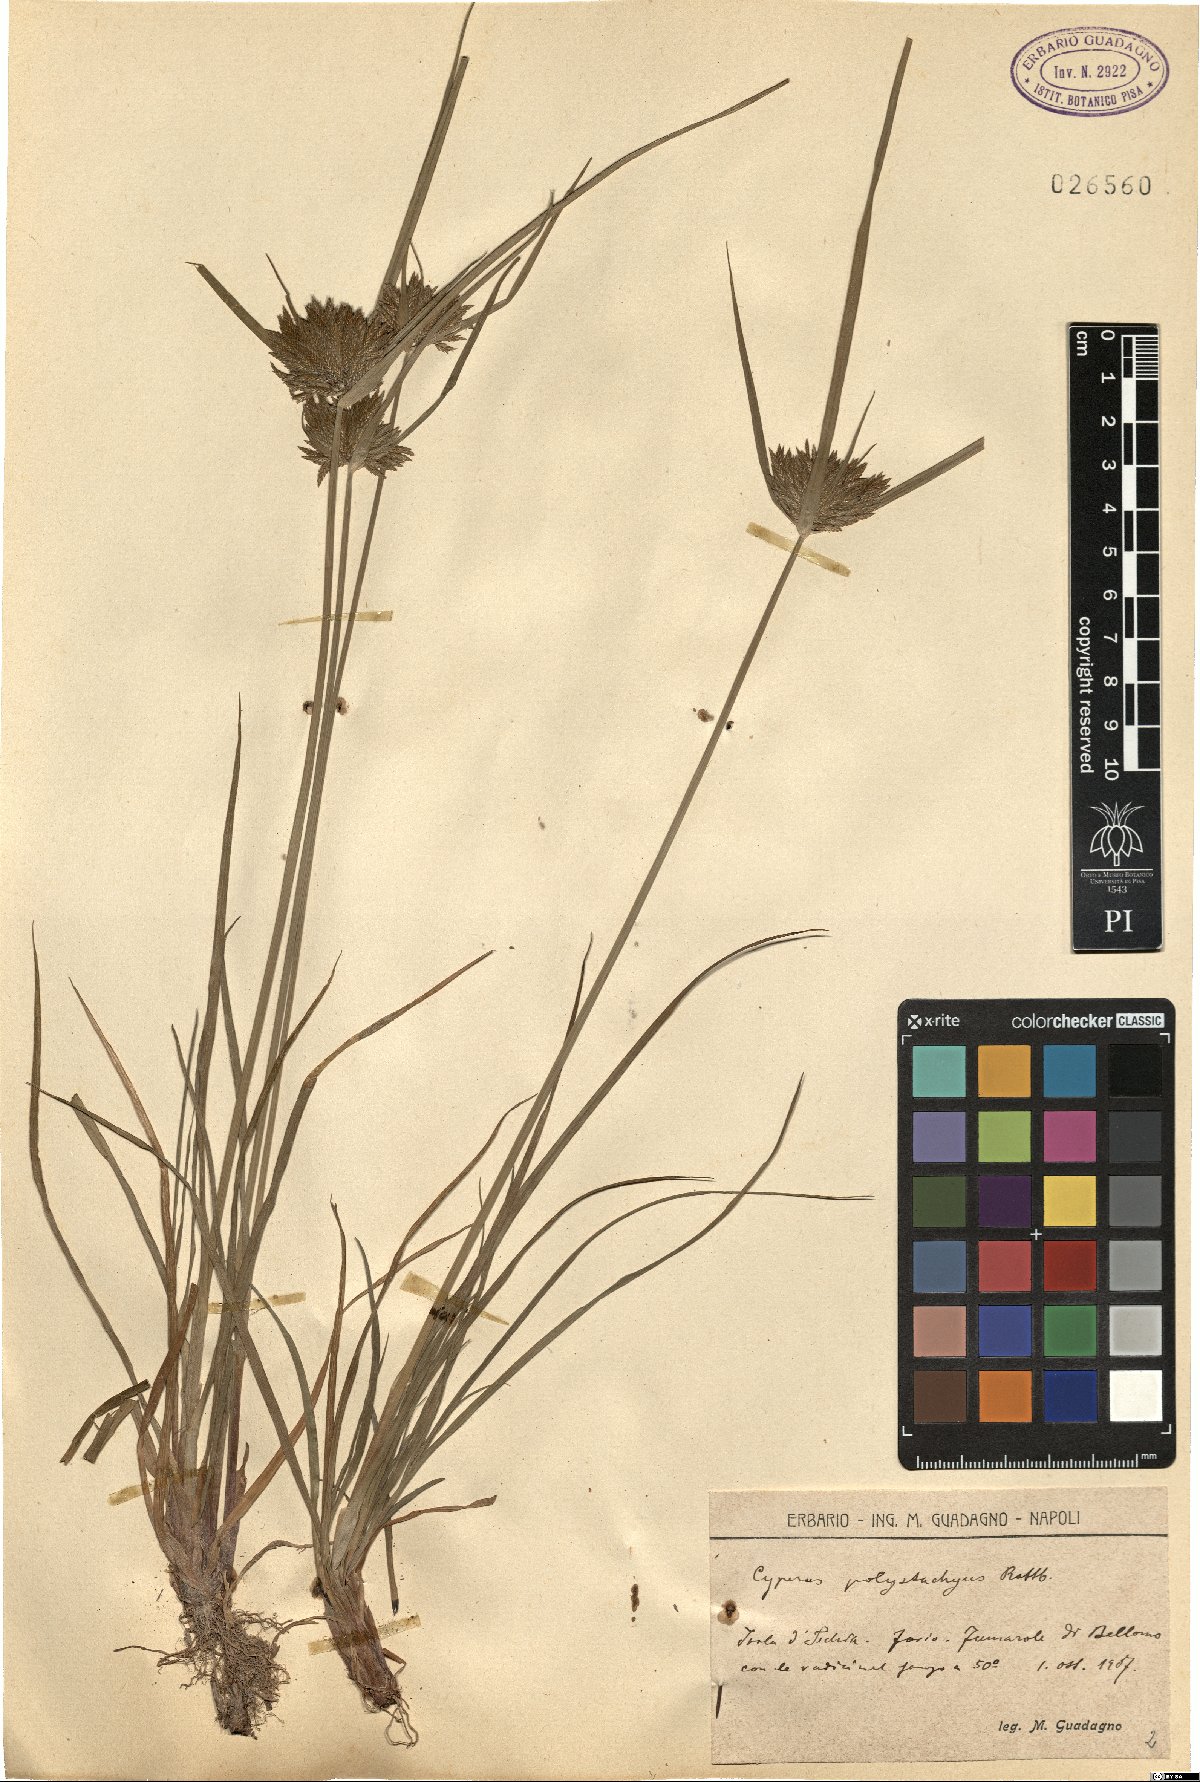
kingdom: Plantae
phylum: Tracheophyta
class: Liliopsida
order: Poales
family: Cyperaceae
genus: Cyperus
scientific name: Cyperus polystachyos
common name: Bunchy flat sedge
